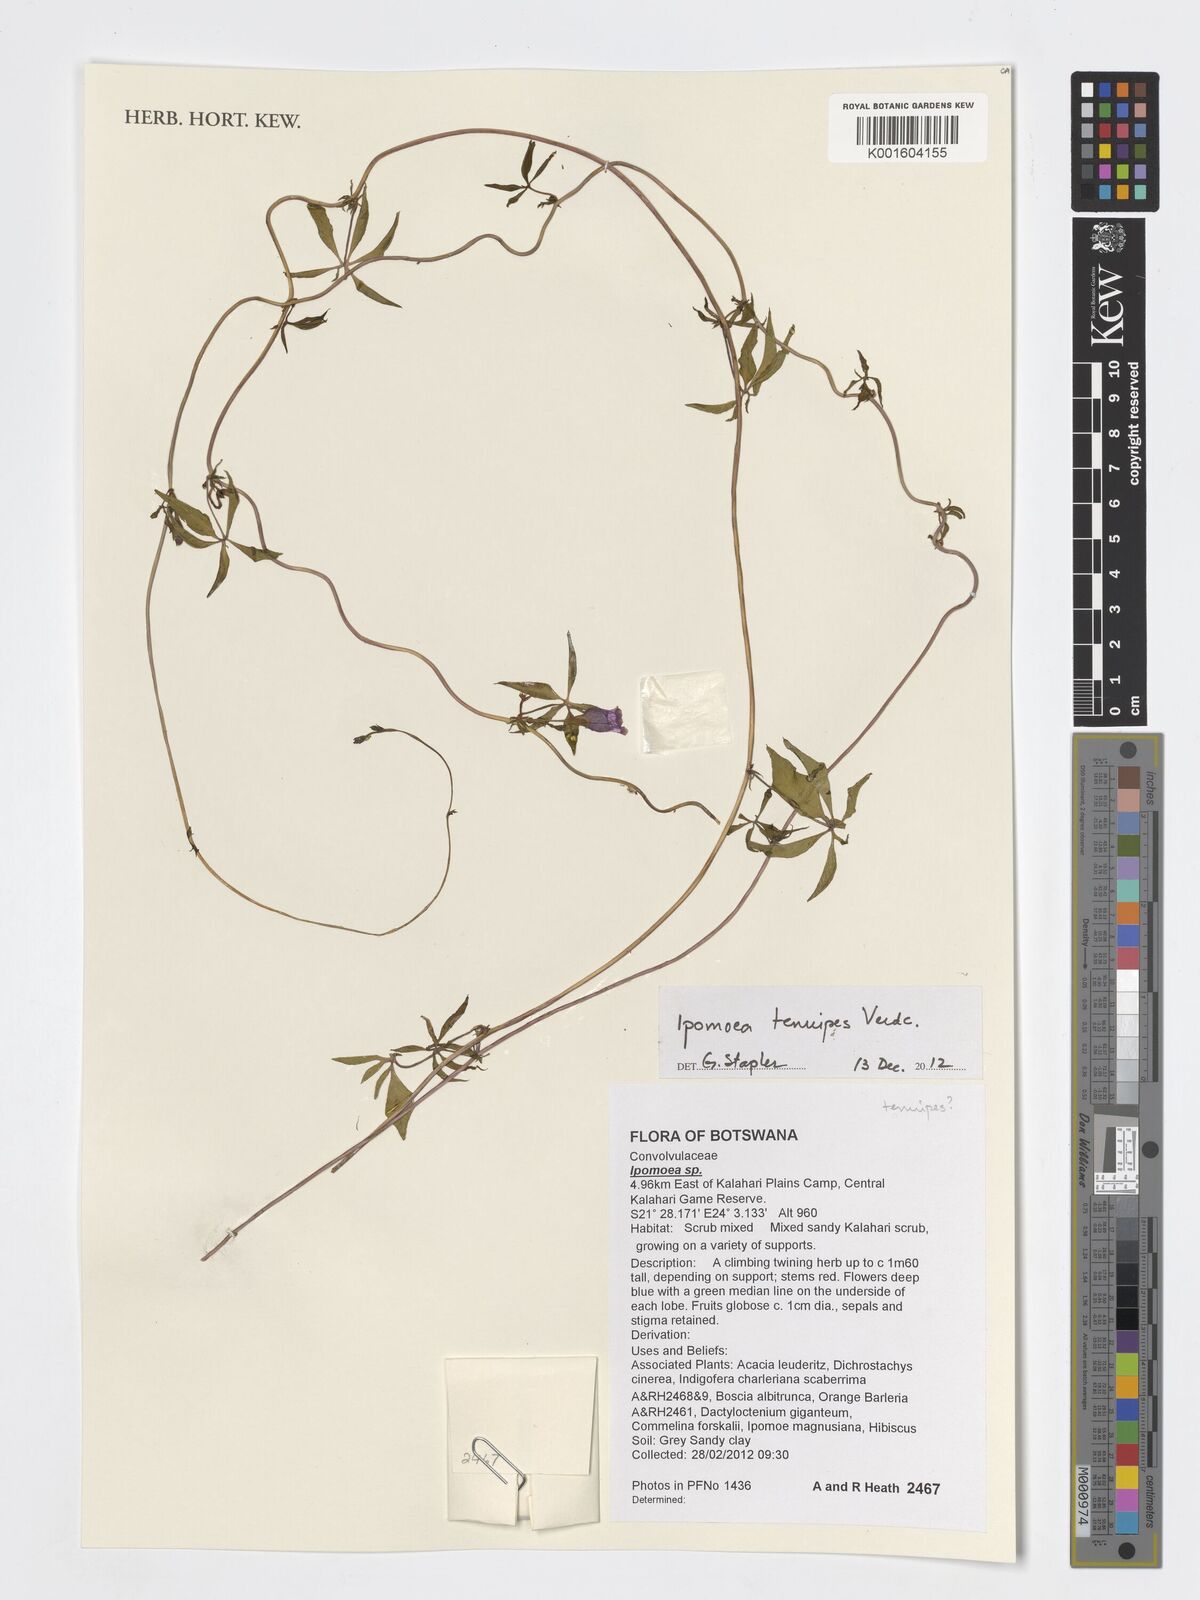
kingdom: Plantae
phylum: Tracheophyta
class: Magnoliopsida
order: Solanales
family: Convolvulaceae
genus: Ipomoea
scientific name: Ipomoea tenuipes
